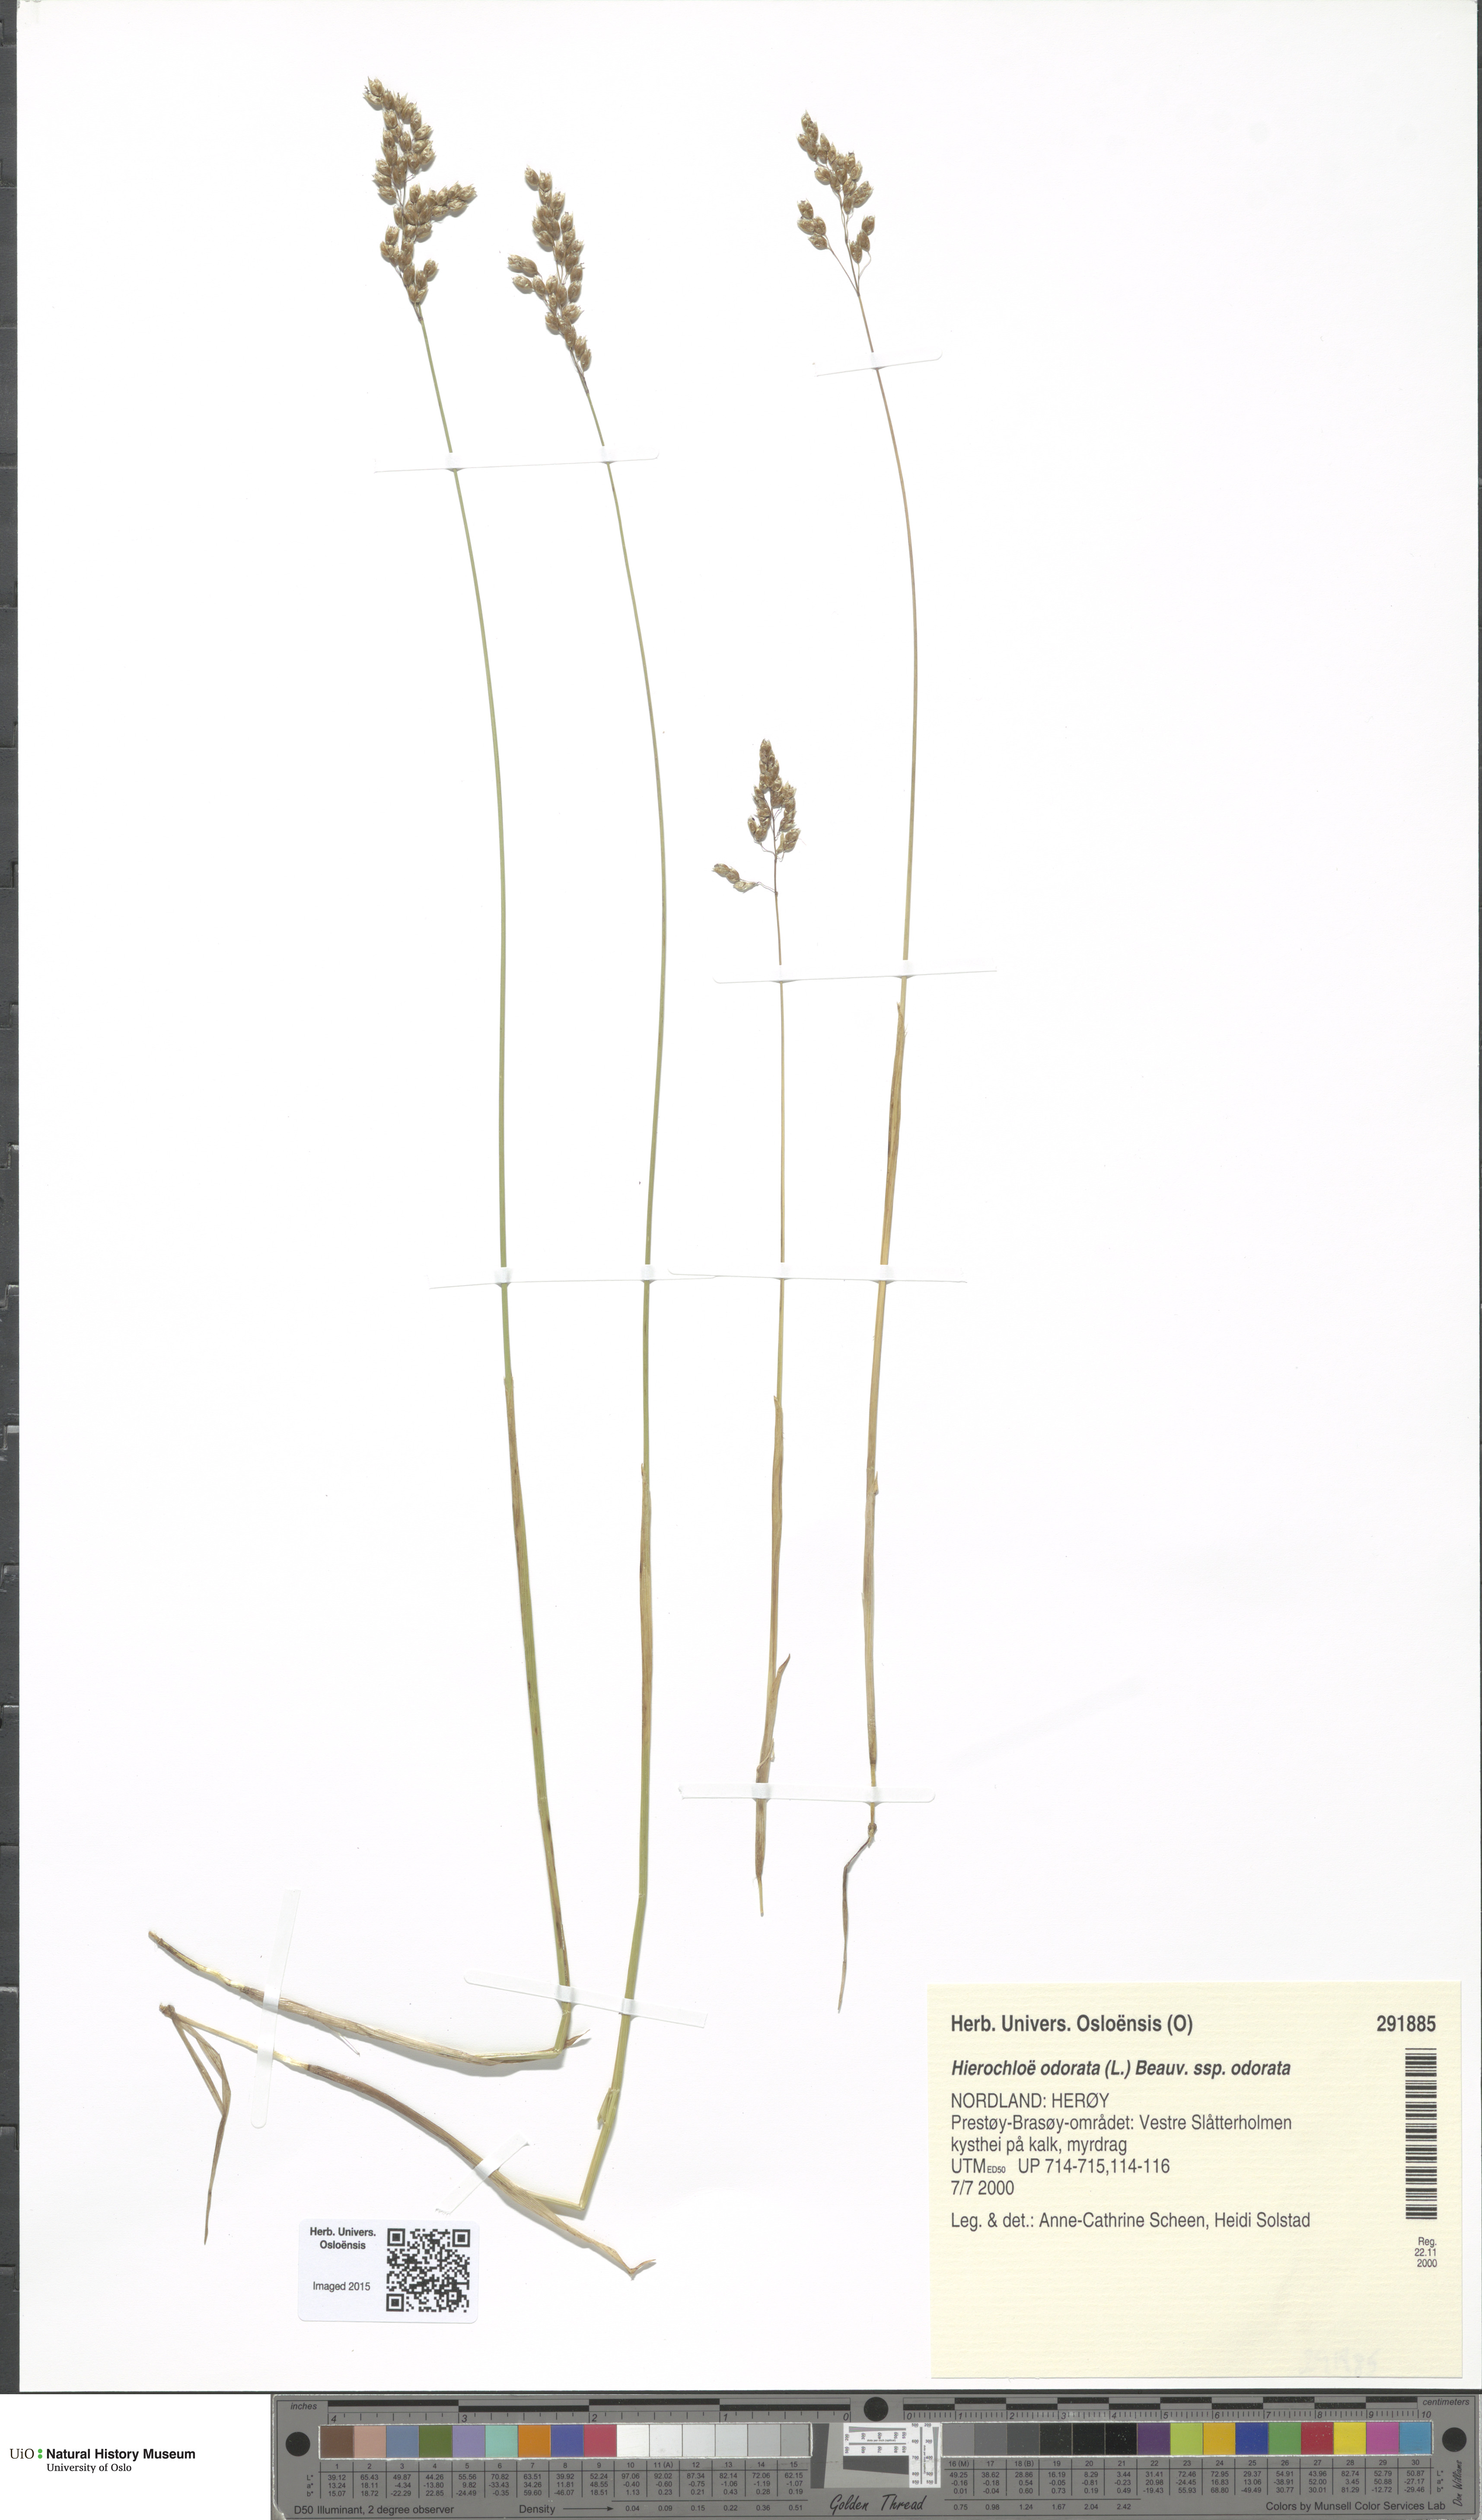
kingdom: Plantae
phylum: Tracheophyta
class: Liliopsida
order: Poales
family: Poaceae
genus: Anthoxanthum
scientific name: Anthoxanthum nitens
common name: Holy grass
